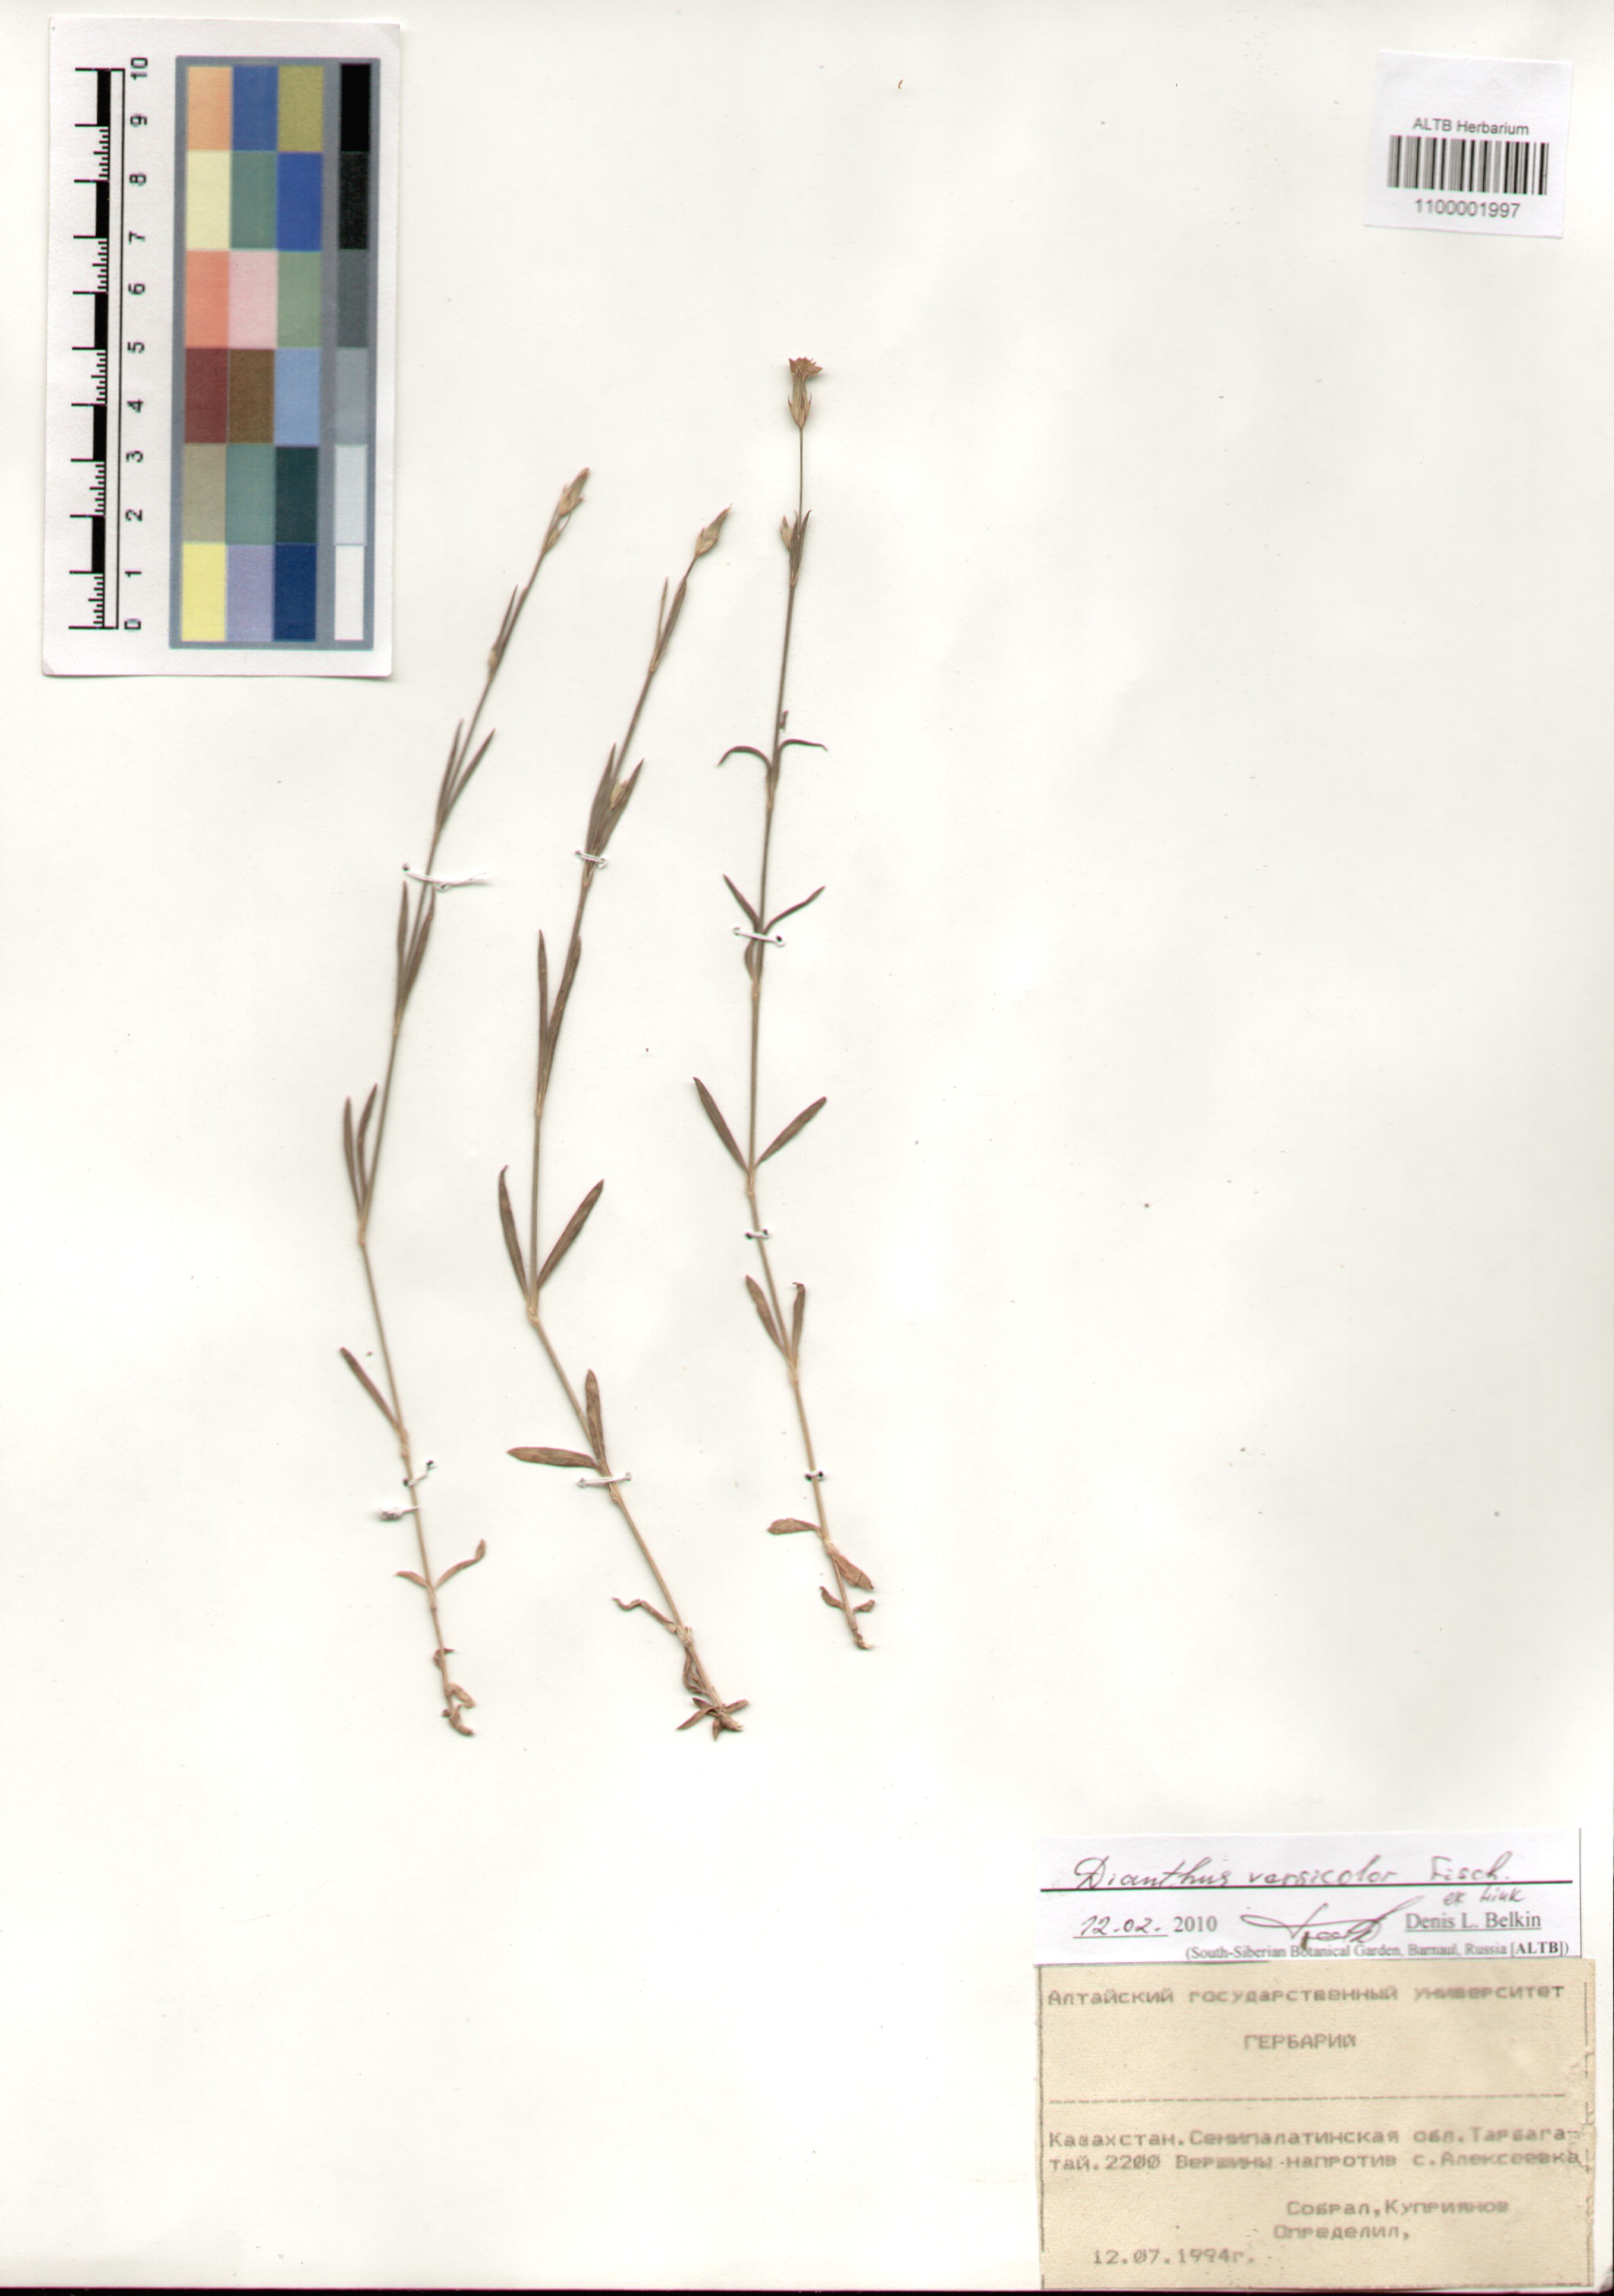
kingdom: Plantae
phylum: Tracheophyta
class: Magnoliopsida
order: Caryophyllales
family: Caryophyllaceae
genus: Dianthus
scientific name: Dianthus chinensis
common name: Rainbow pink
